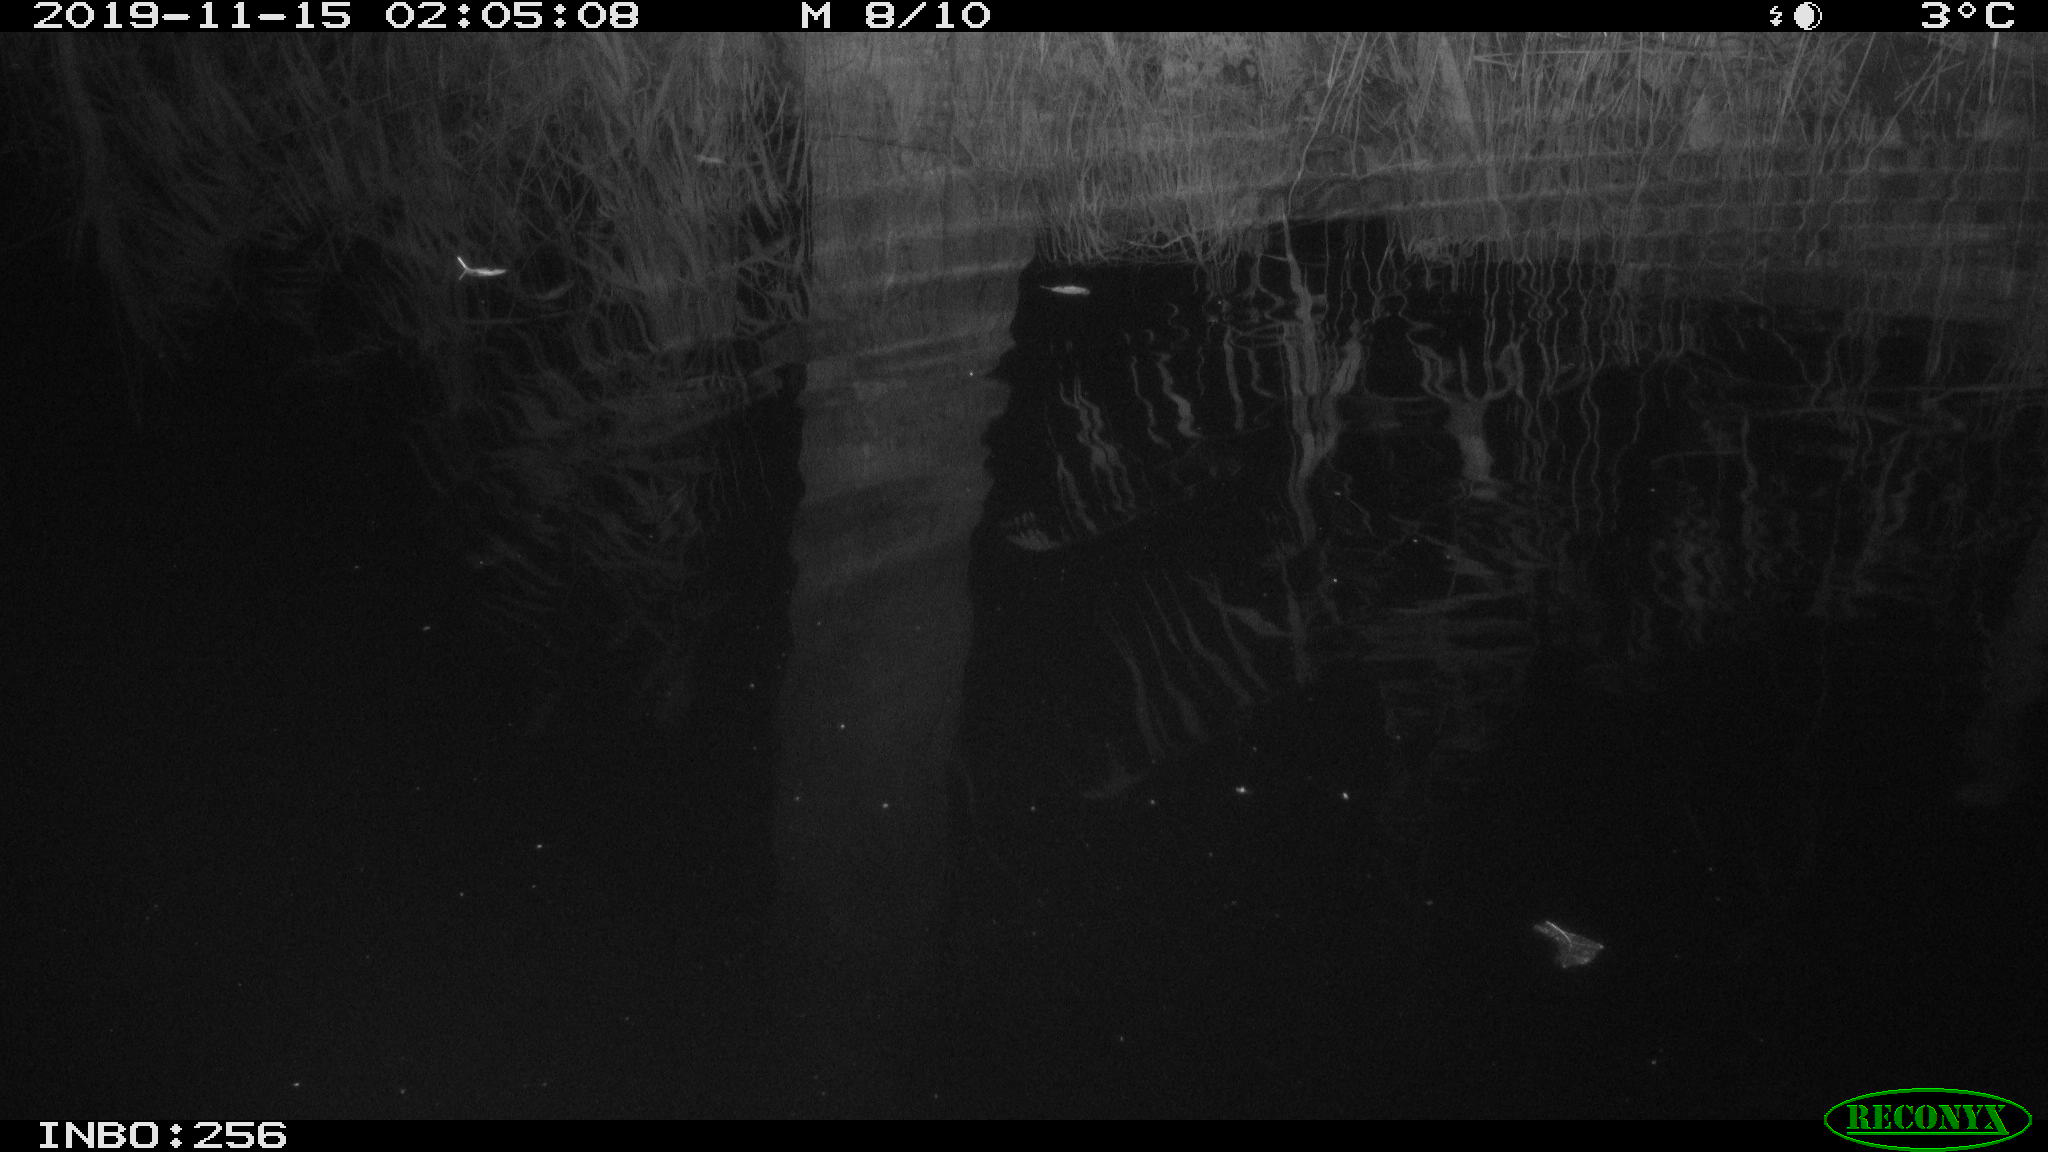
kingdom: Animalia
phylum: Chordata
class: Mammalia
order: Rodentia
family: Muridae
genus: Rattus
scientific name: Rattus norvegicus
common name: Brown rat
